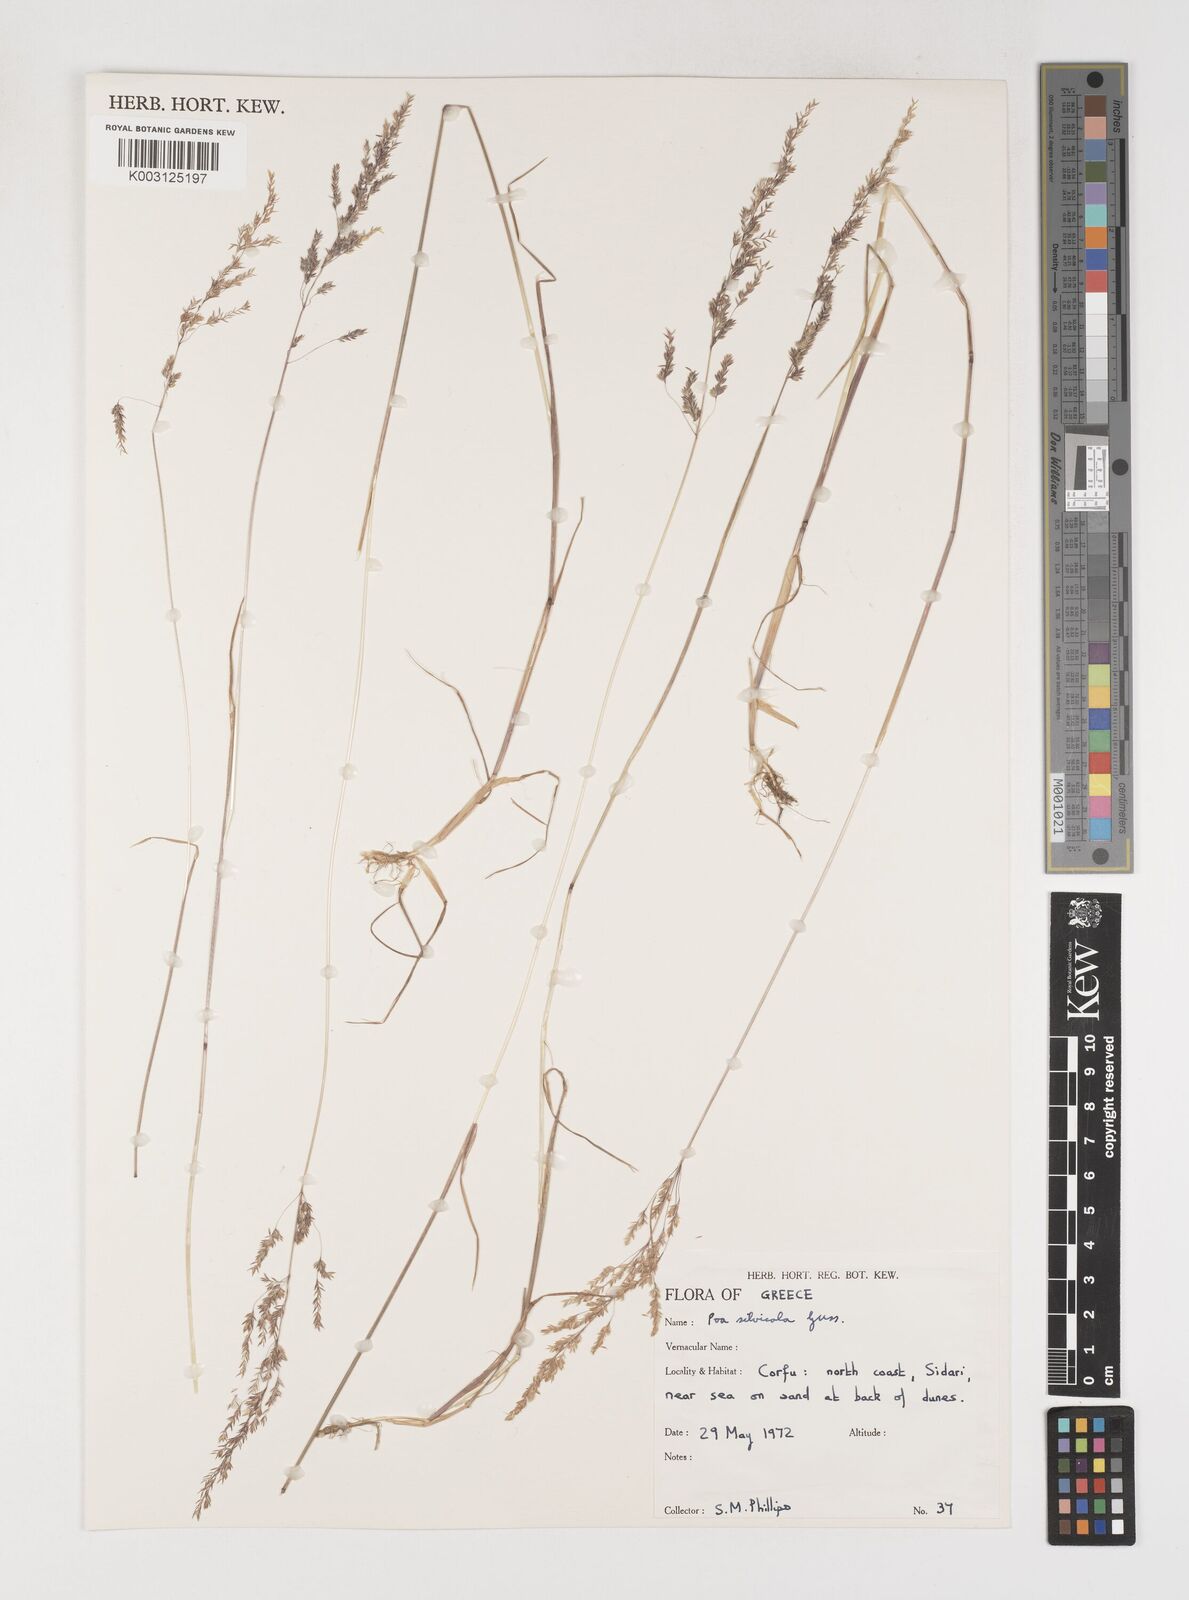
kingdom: Plantae
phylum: Tracheophyta
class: Liliopsida
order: Poales
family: Poaceae
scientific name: Poaceae
